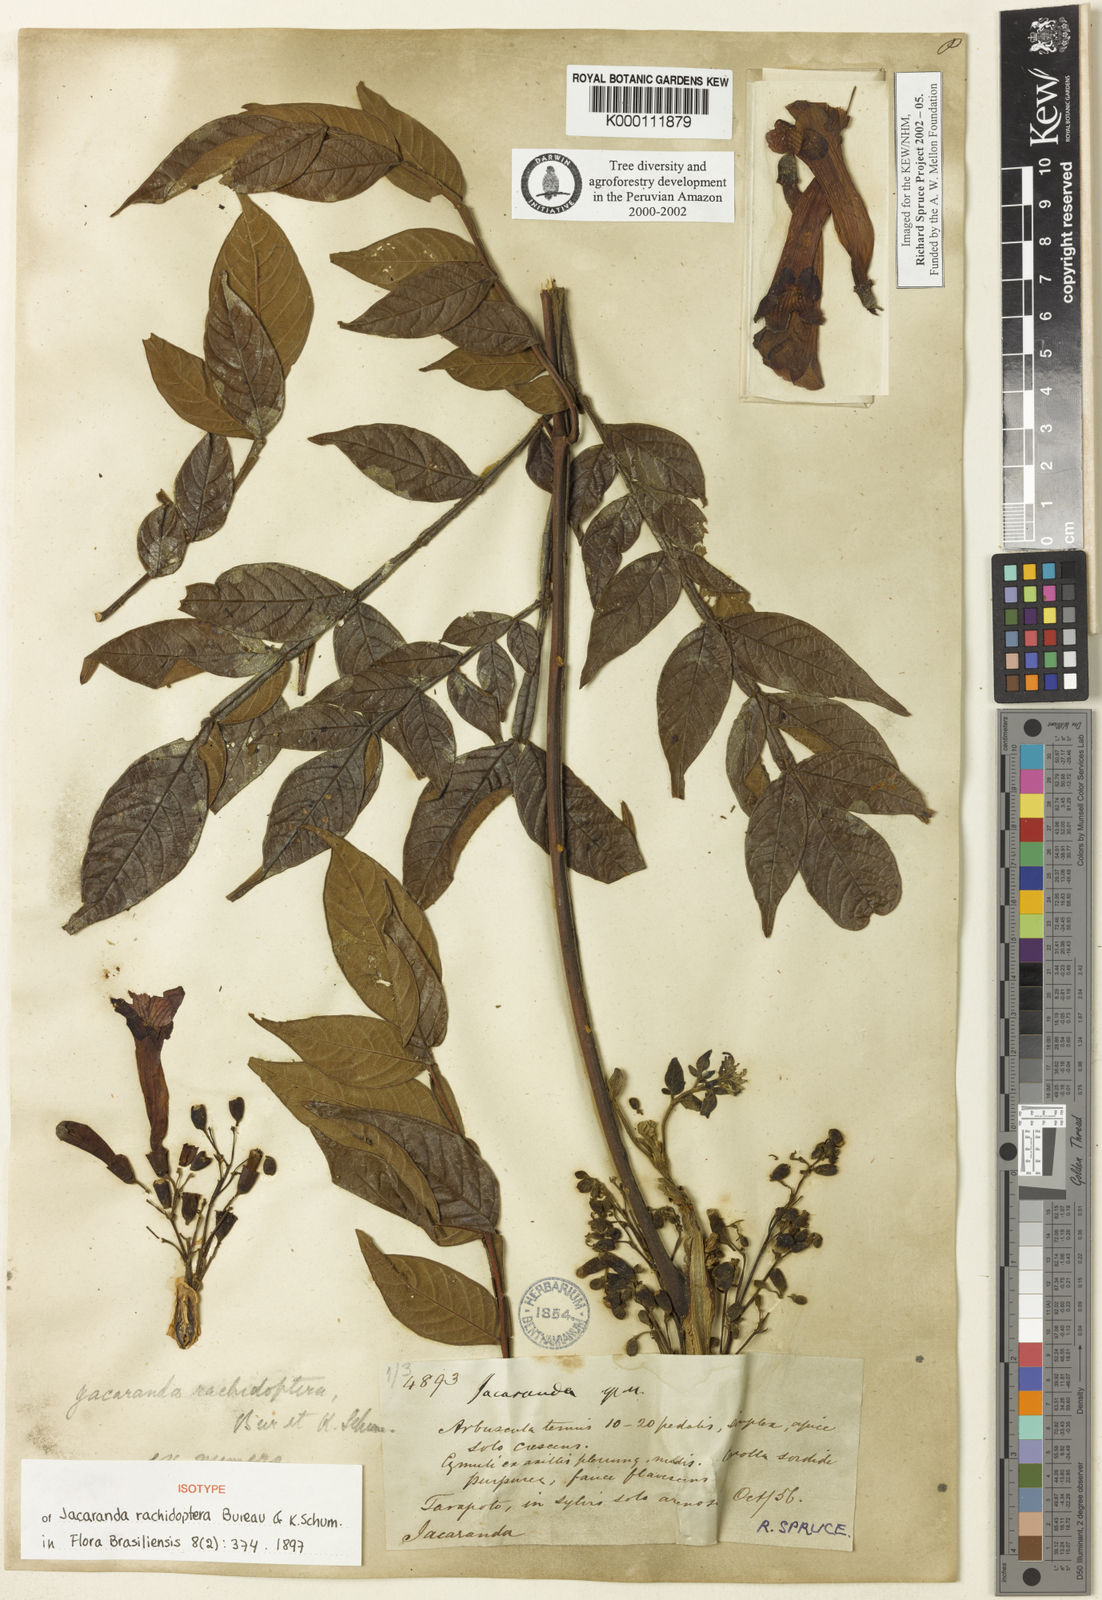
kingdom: Plantae
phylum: Tracheophyta
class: Magnoliopsida
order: Lamiales
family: Bignoniaceae
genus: Jacaranda
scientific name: Jacaranda glabra
